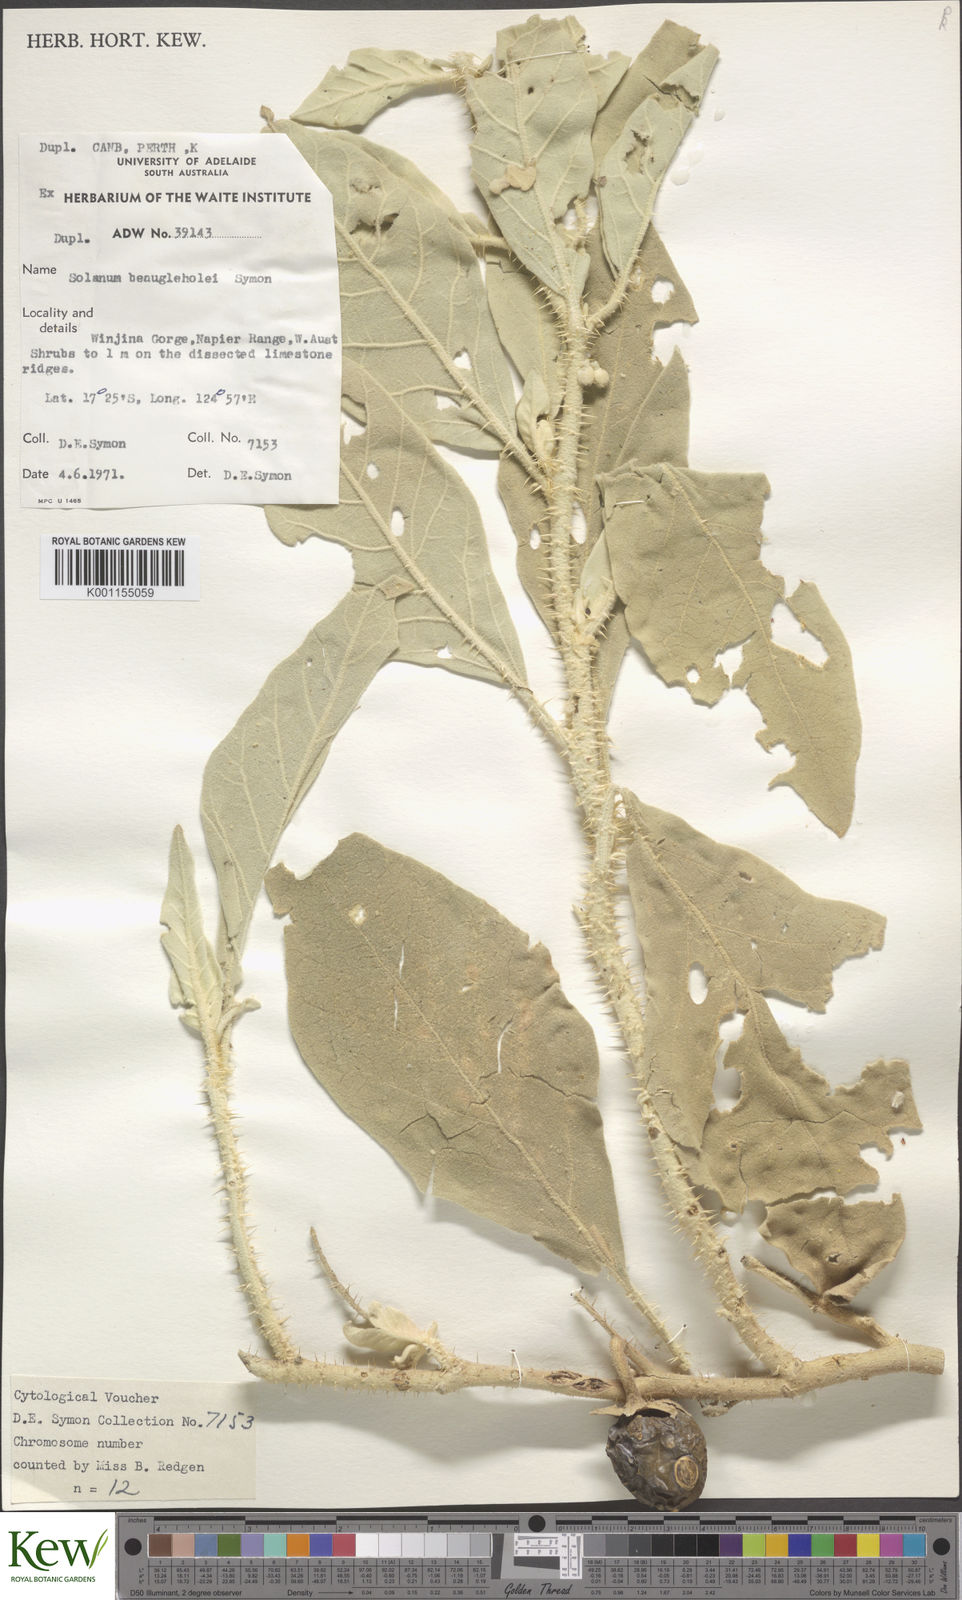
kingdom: Plantae
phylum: Tracheophyta
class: Magnoliopsida
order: Solanales
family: Solanaceae
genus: Solanum
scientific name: Solanum beaugleholei
